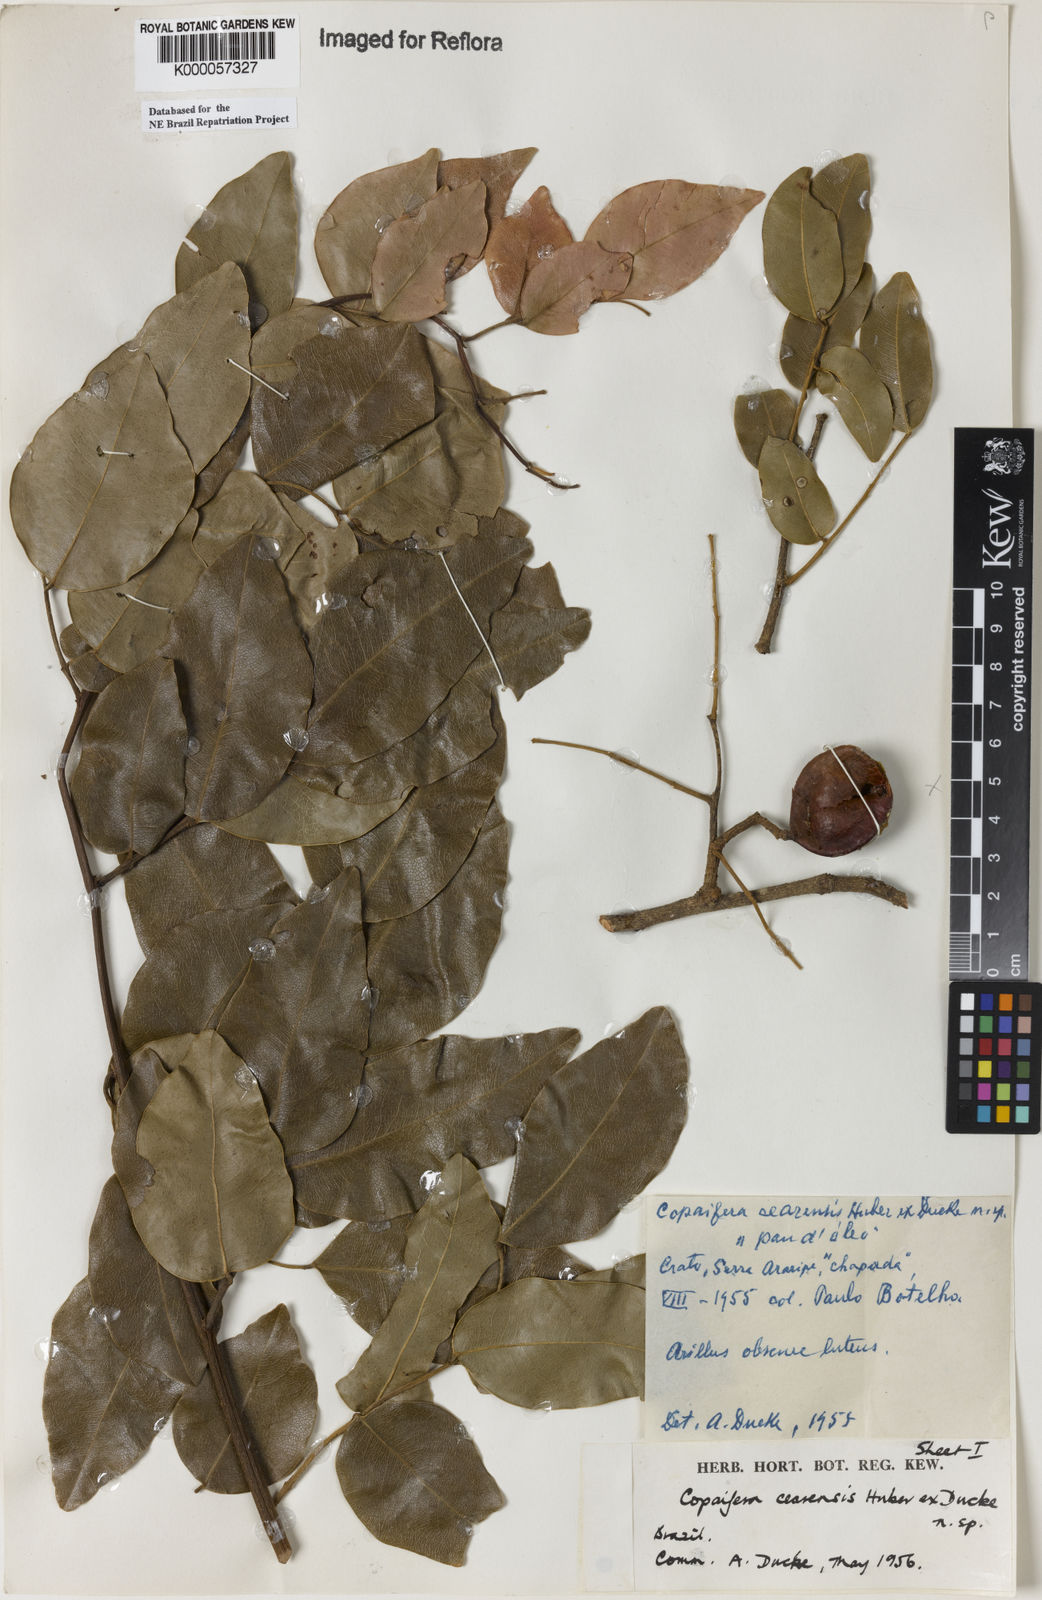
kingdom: Plantae
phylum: Tracheophyta
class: Magnoliopsida
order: Fabales
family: Fabaceae
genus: Copaifera
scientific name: Copaifera duckei
